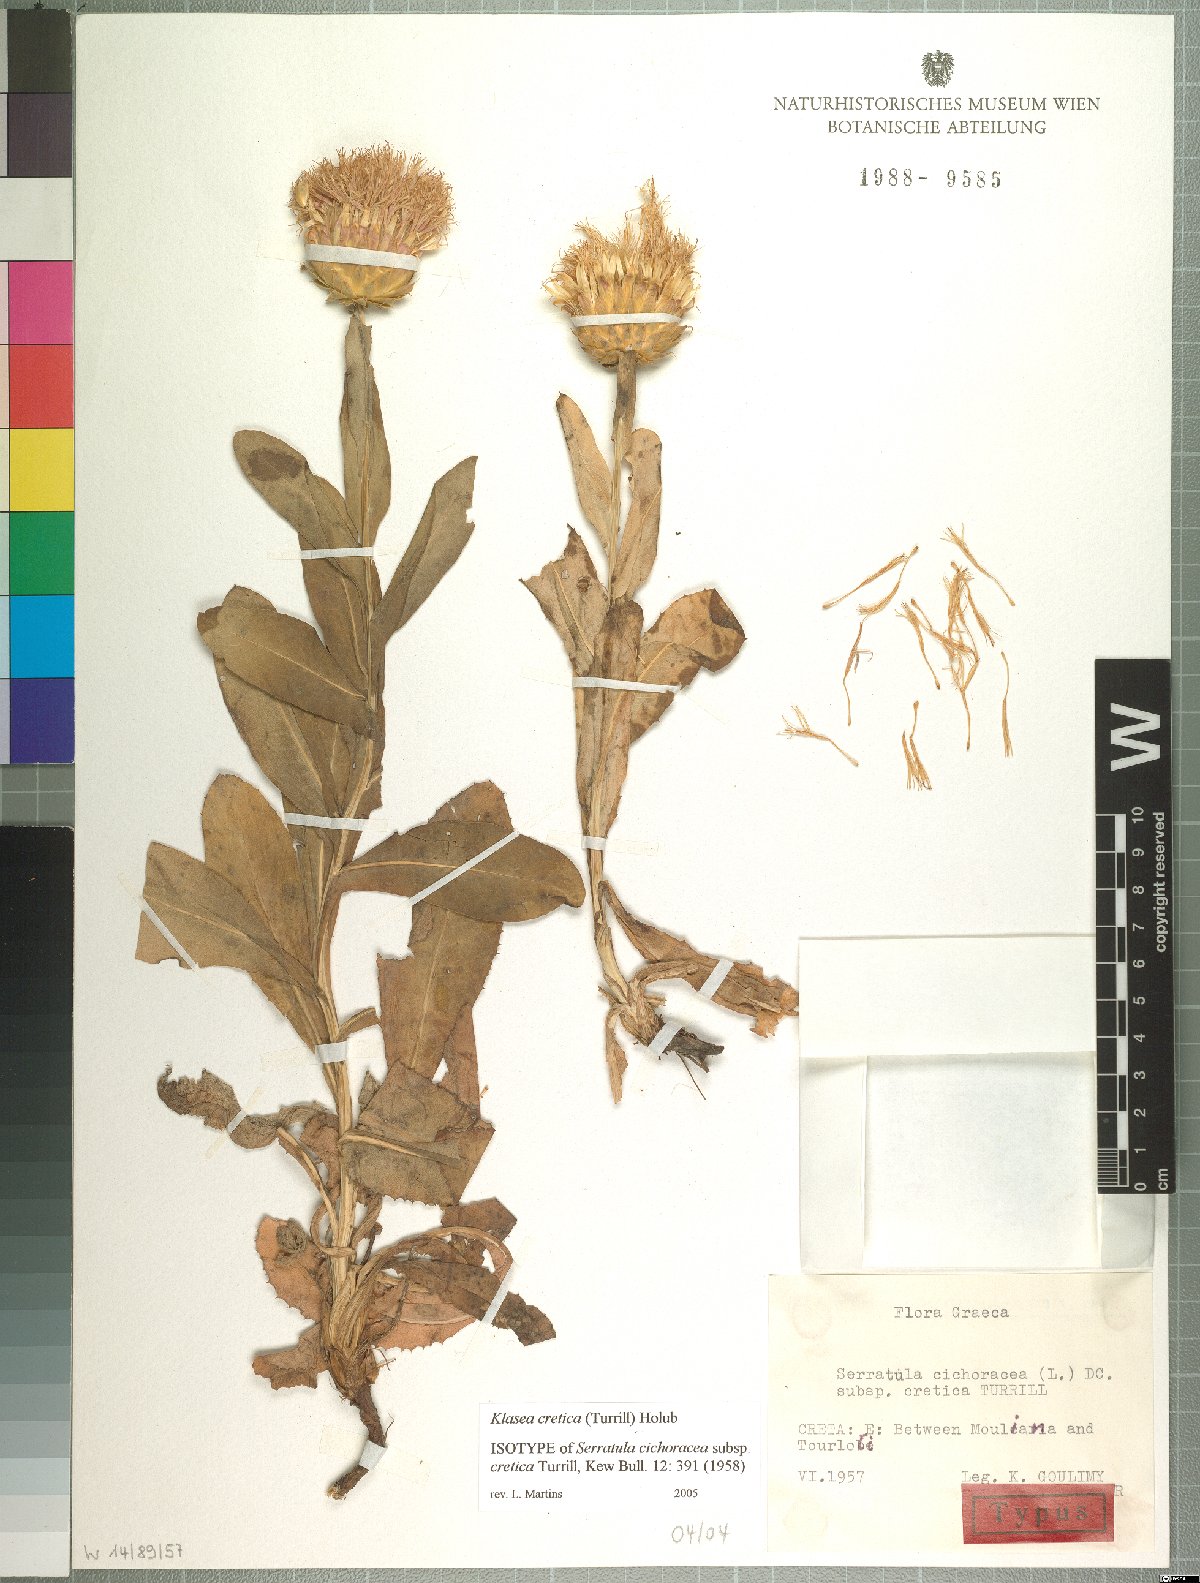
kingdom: Plantae
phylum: Tracheophyta
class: Magnoliopsida
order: Asterales
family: Asteraceae
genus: Klasea
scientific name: Klasea cretica
